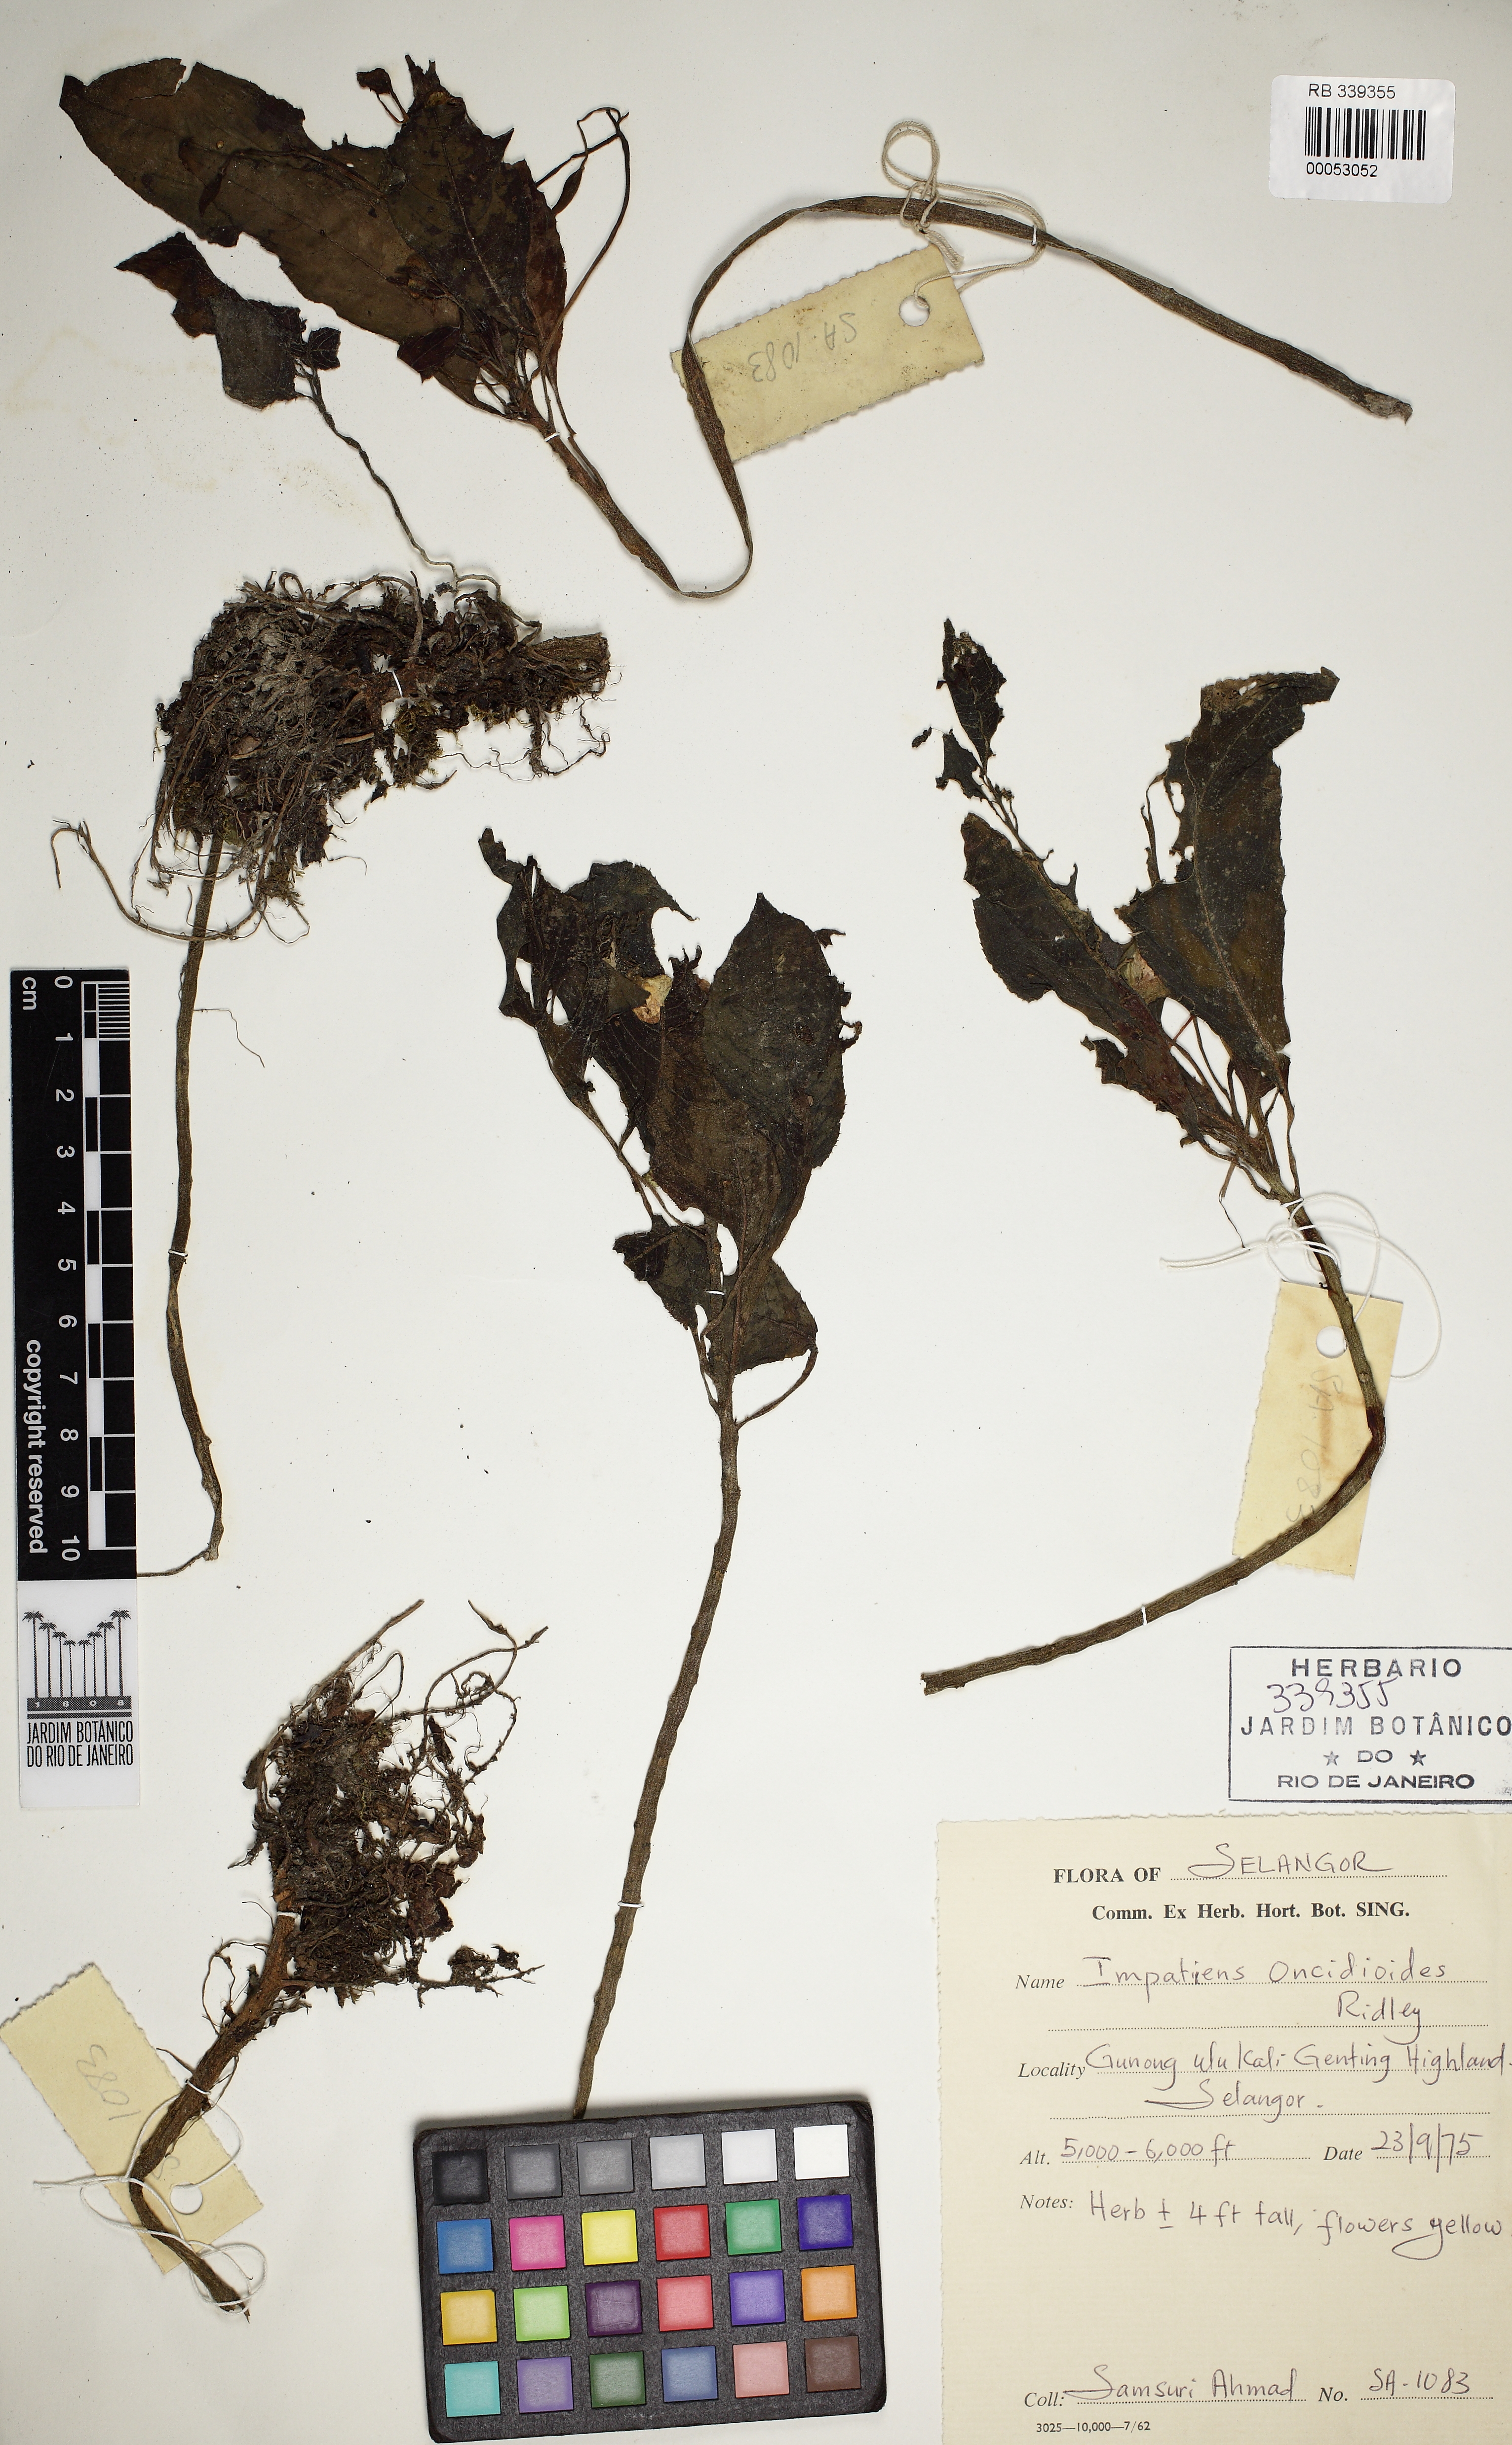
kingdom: Plantae
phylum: Tracheophyta
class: Magnoliopsida
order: Ericales
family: Balsaminaceae
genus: Impatiens
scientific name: Impatiens oncidioides
